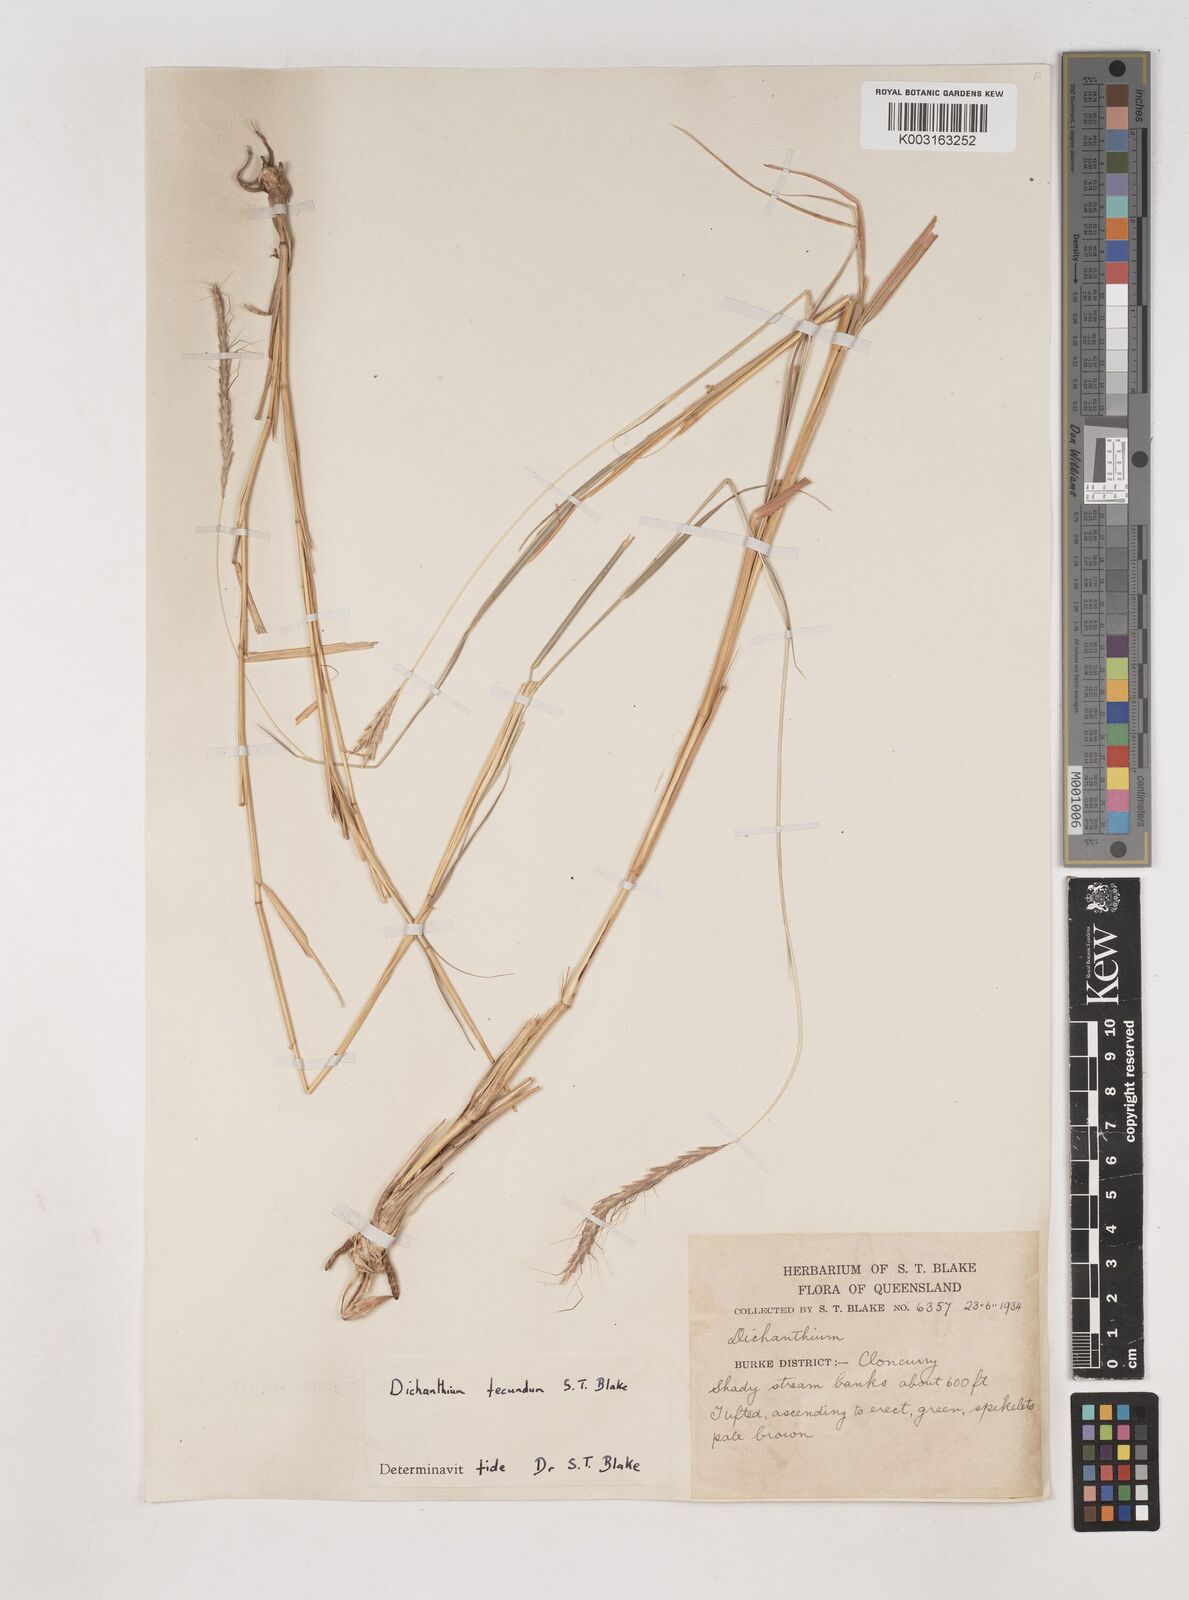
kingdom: Plantae
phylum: Tracheophyta
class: Liliopsida
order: Poales
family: Poaceae
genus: Dichanthium
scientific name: Dichanthium annulatum
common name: Kleberg's bluestem
